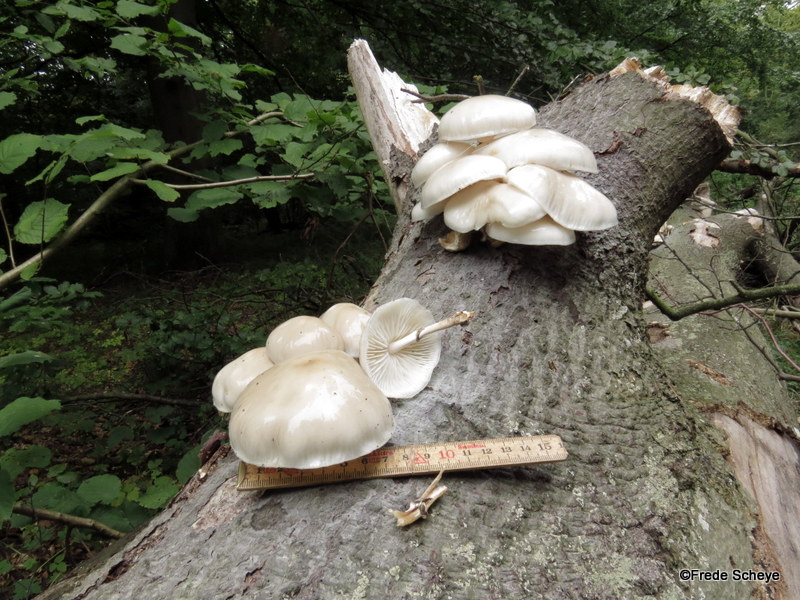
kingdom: Fungi
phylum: Basidiomycota
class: Agaricomycetes
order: Agaricales
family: Physalacriaceae
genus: Mucidula
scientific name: Mucidula mucida
